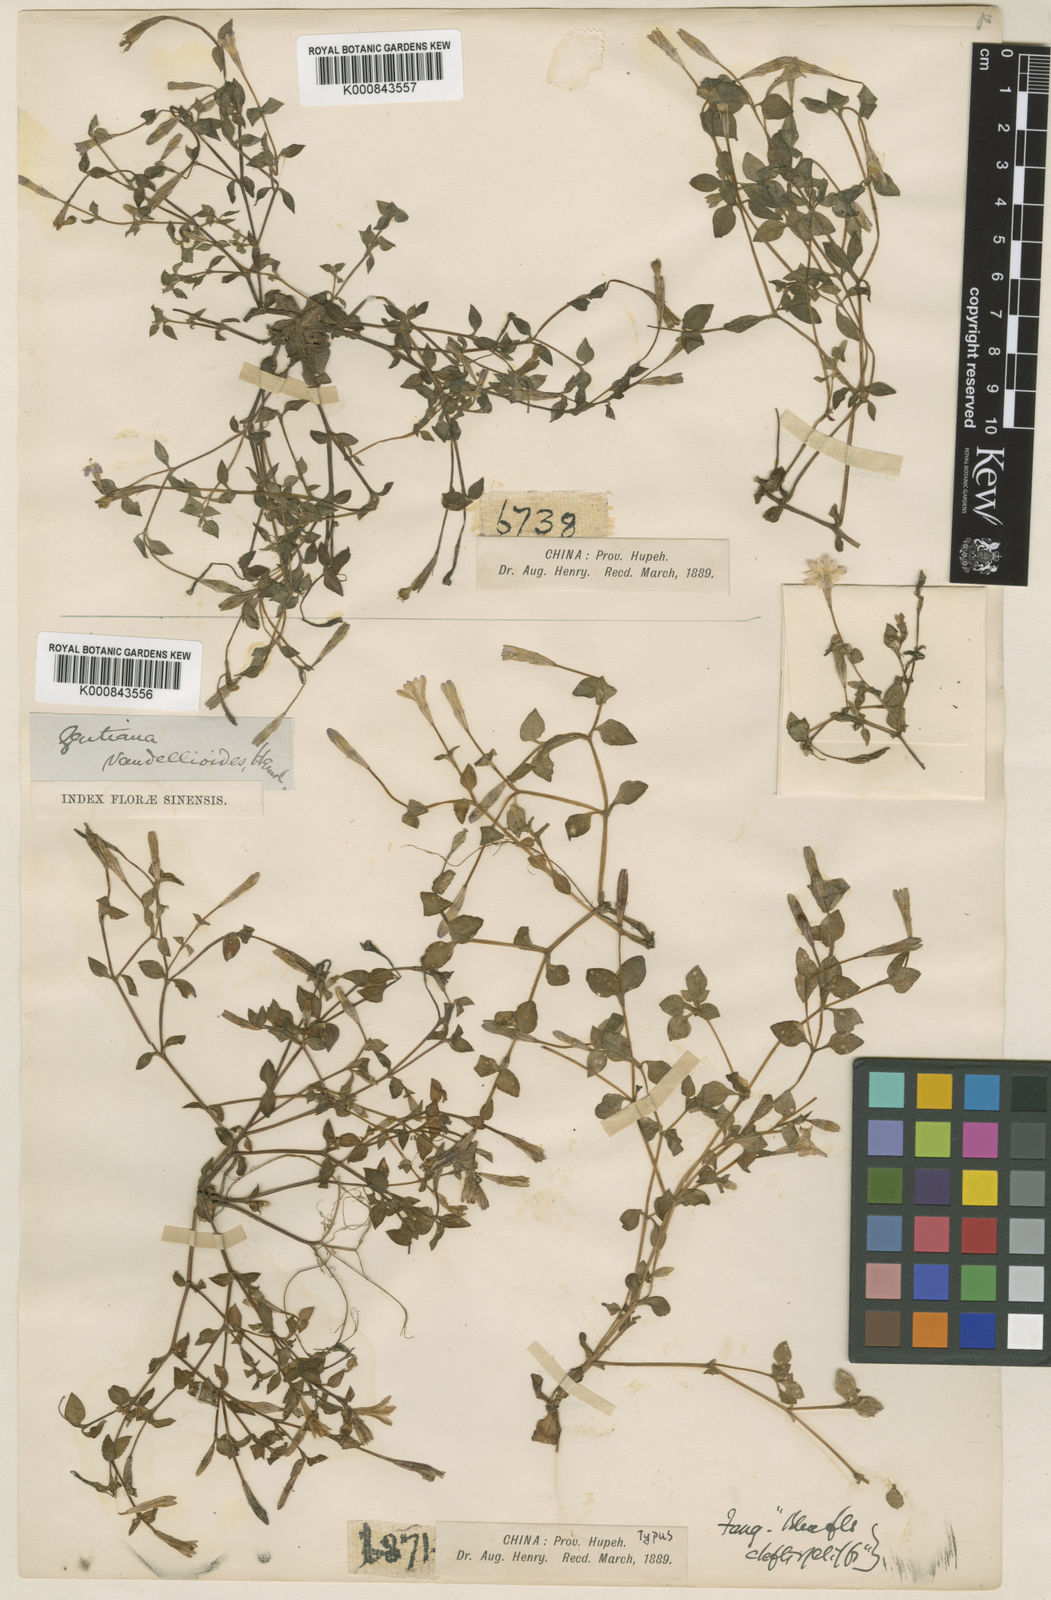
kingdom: Plantae
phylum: Tracheophyta
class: Magnoliopsida
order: Gentianales
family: Gentianaceae
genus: Gentiana
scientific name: Gentiana vandellioides
